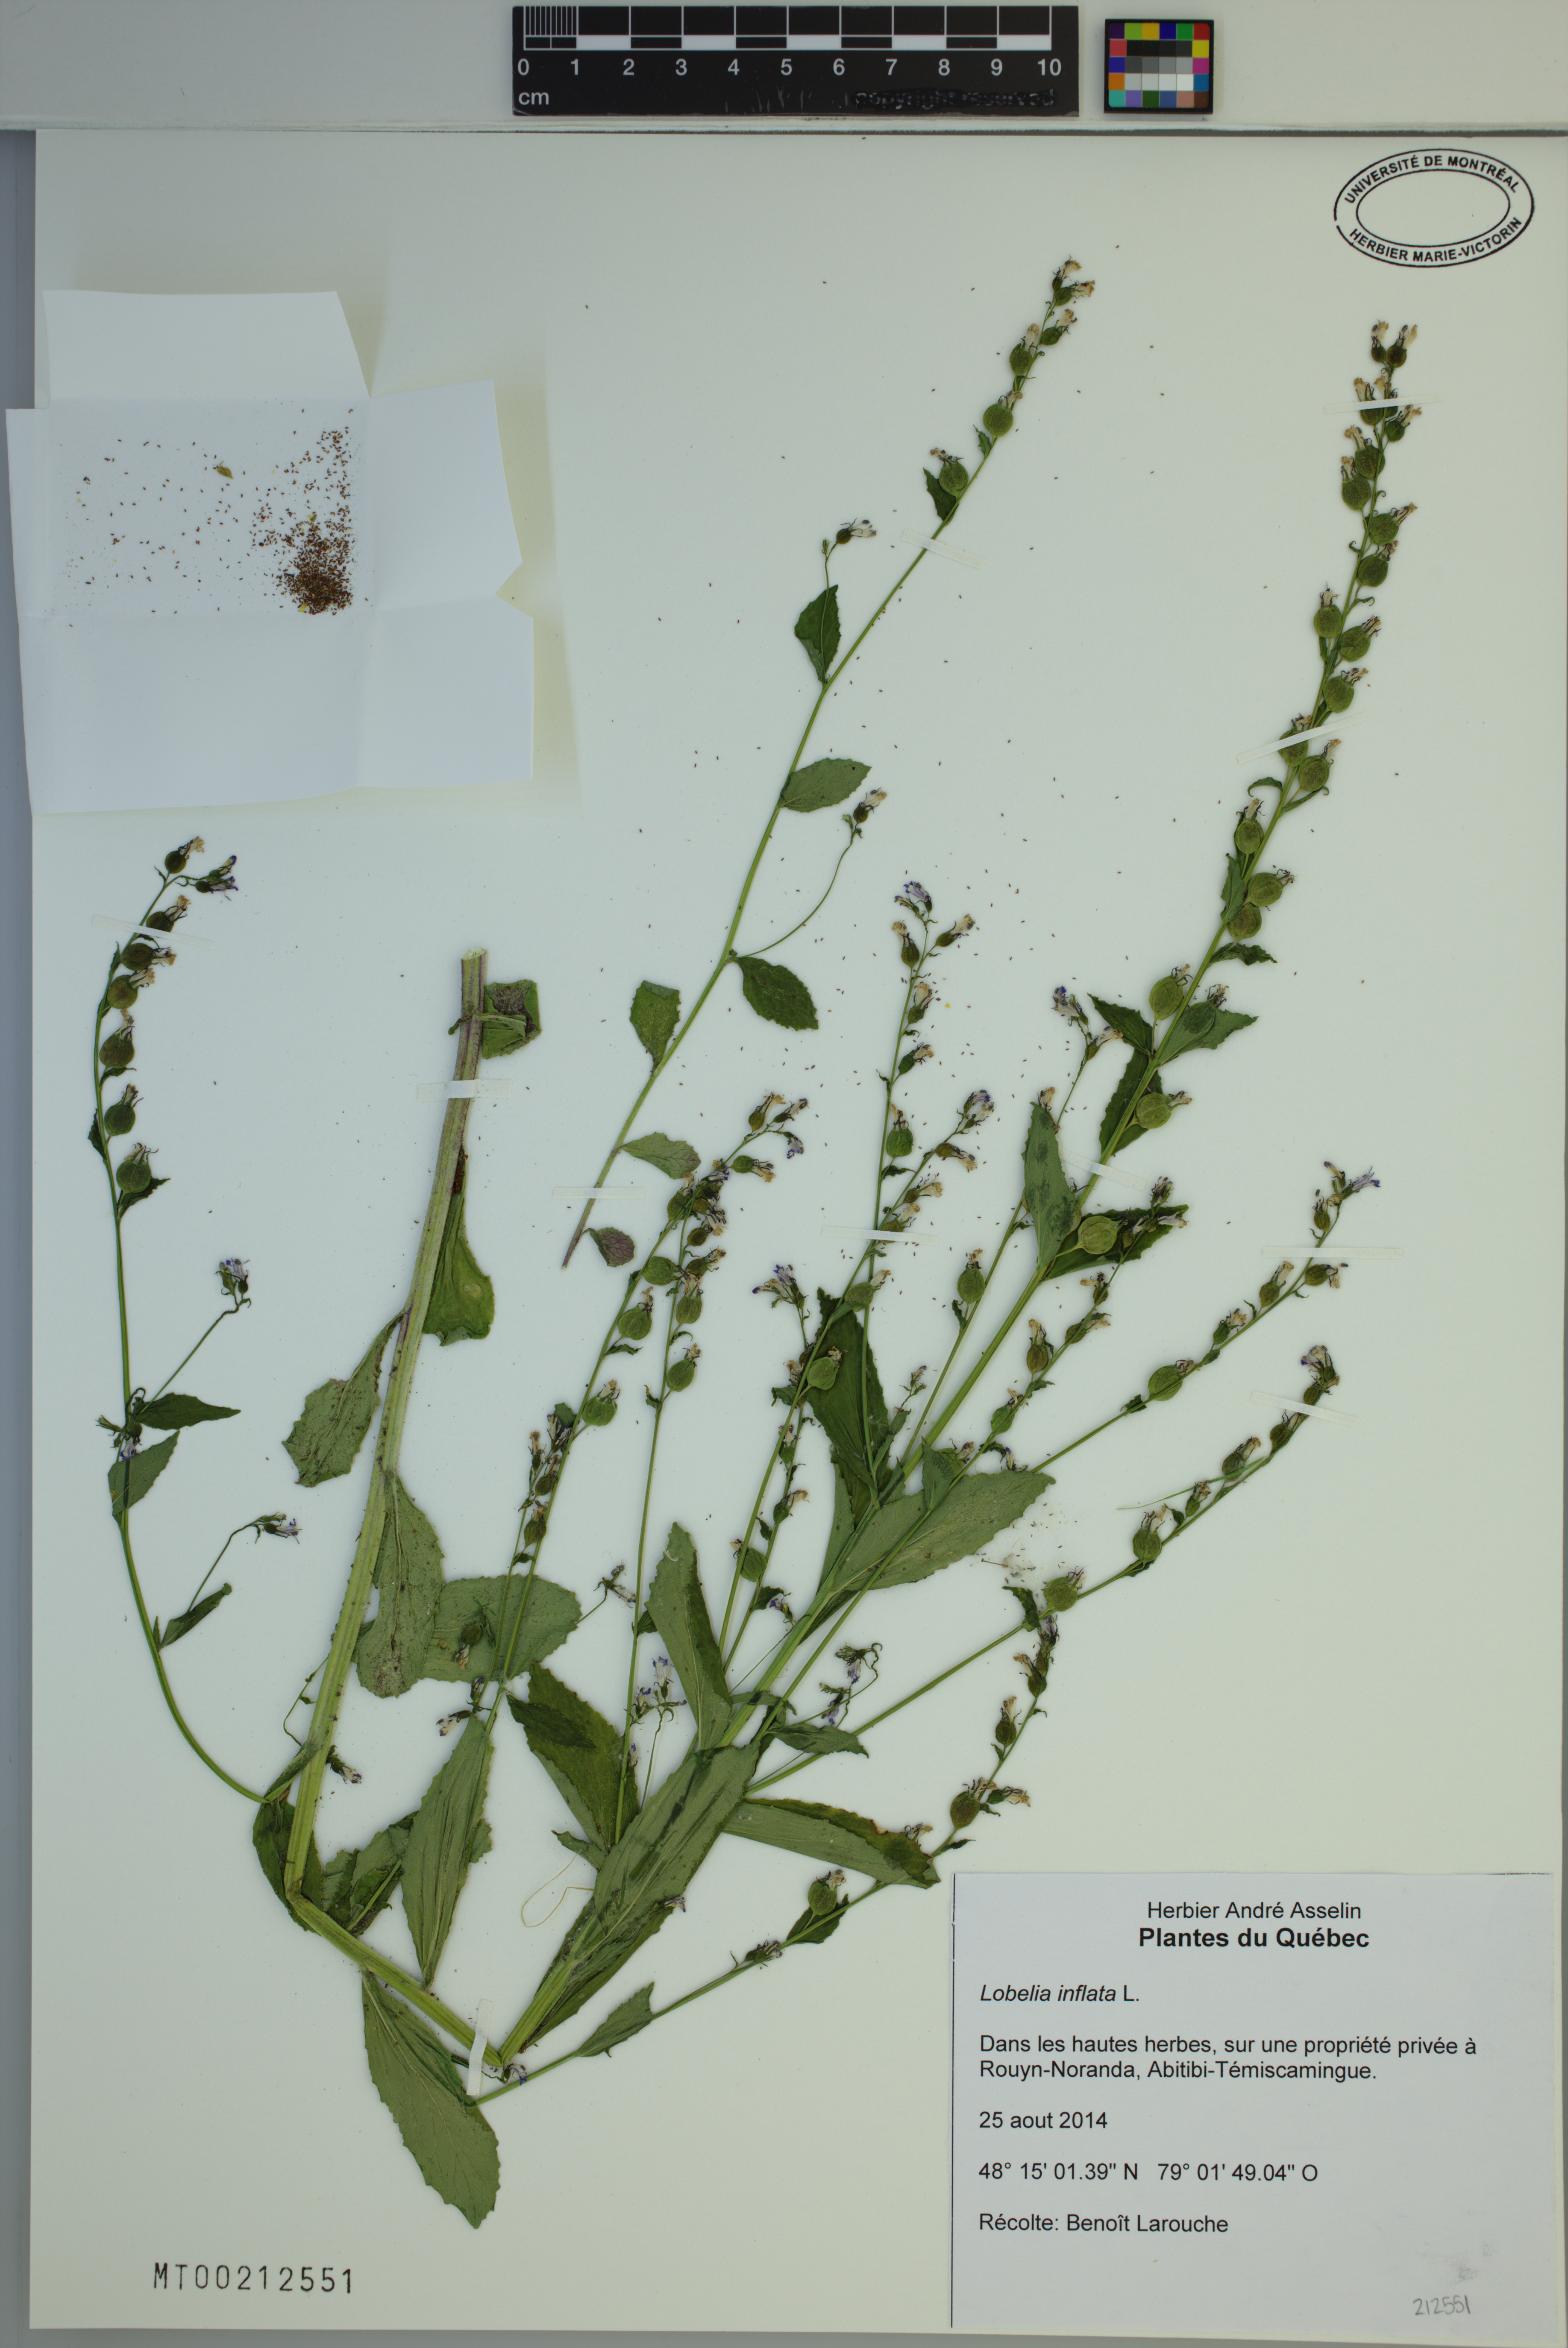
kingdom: Plantae
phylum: Tracheophyta
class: Magnoliopsida
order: Asterales
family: Campanulaceae
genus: Lobelia
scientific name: Lobelia inflata
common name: Indian tobacco
